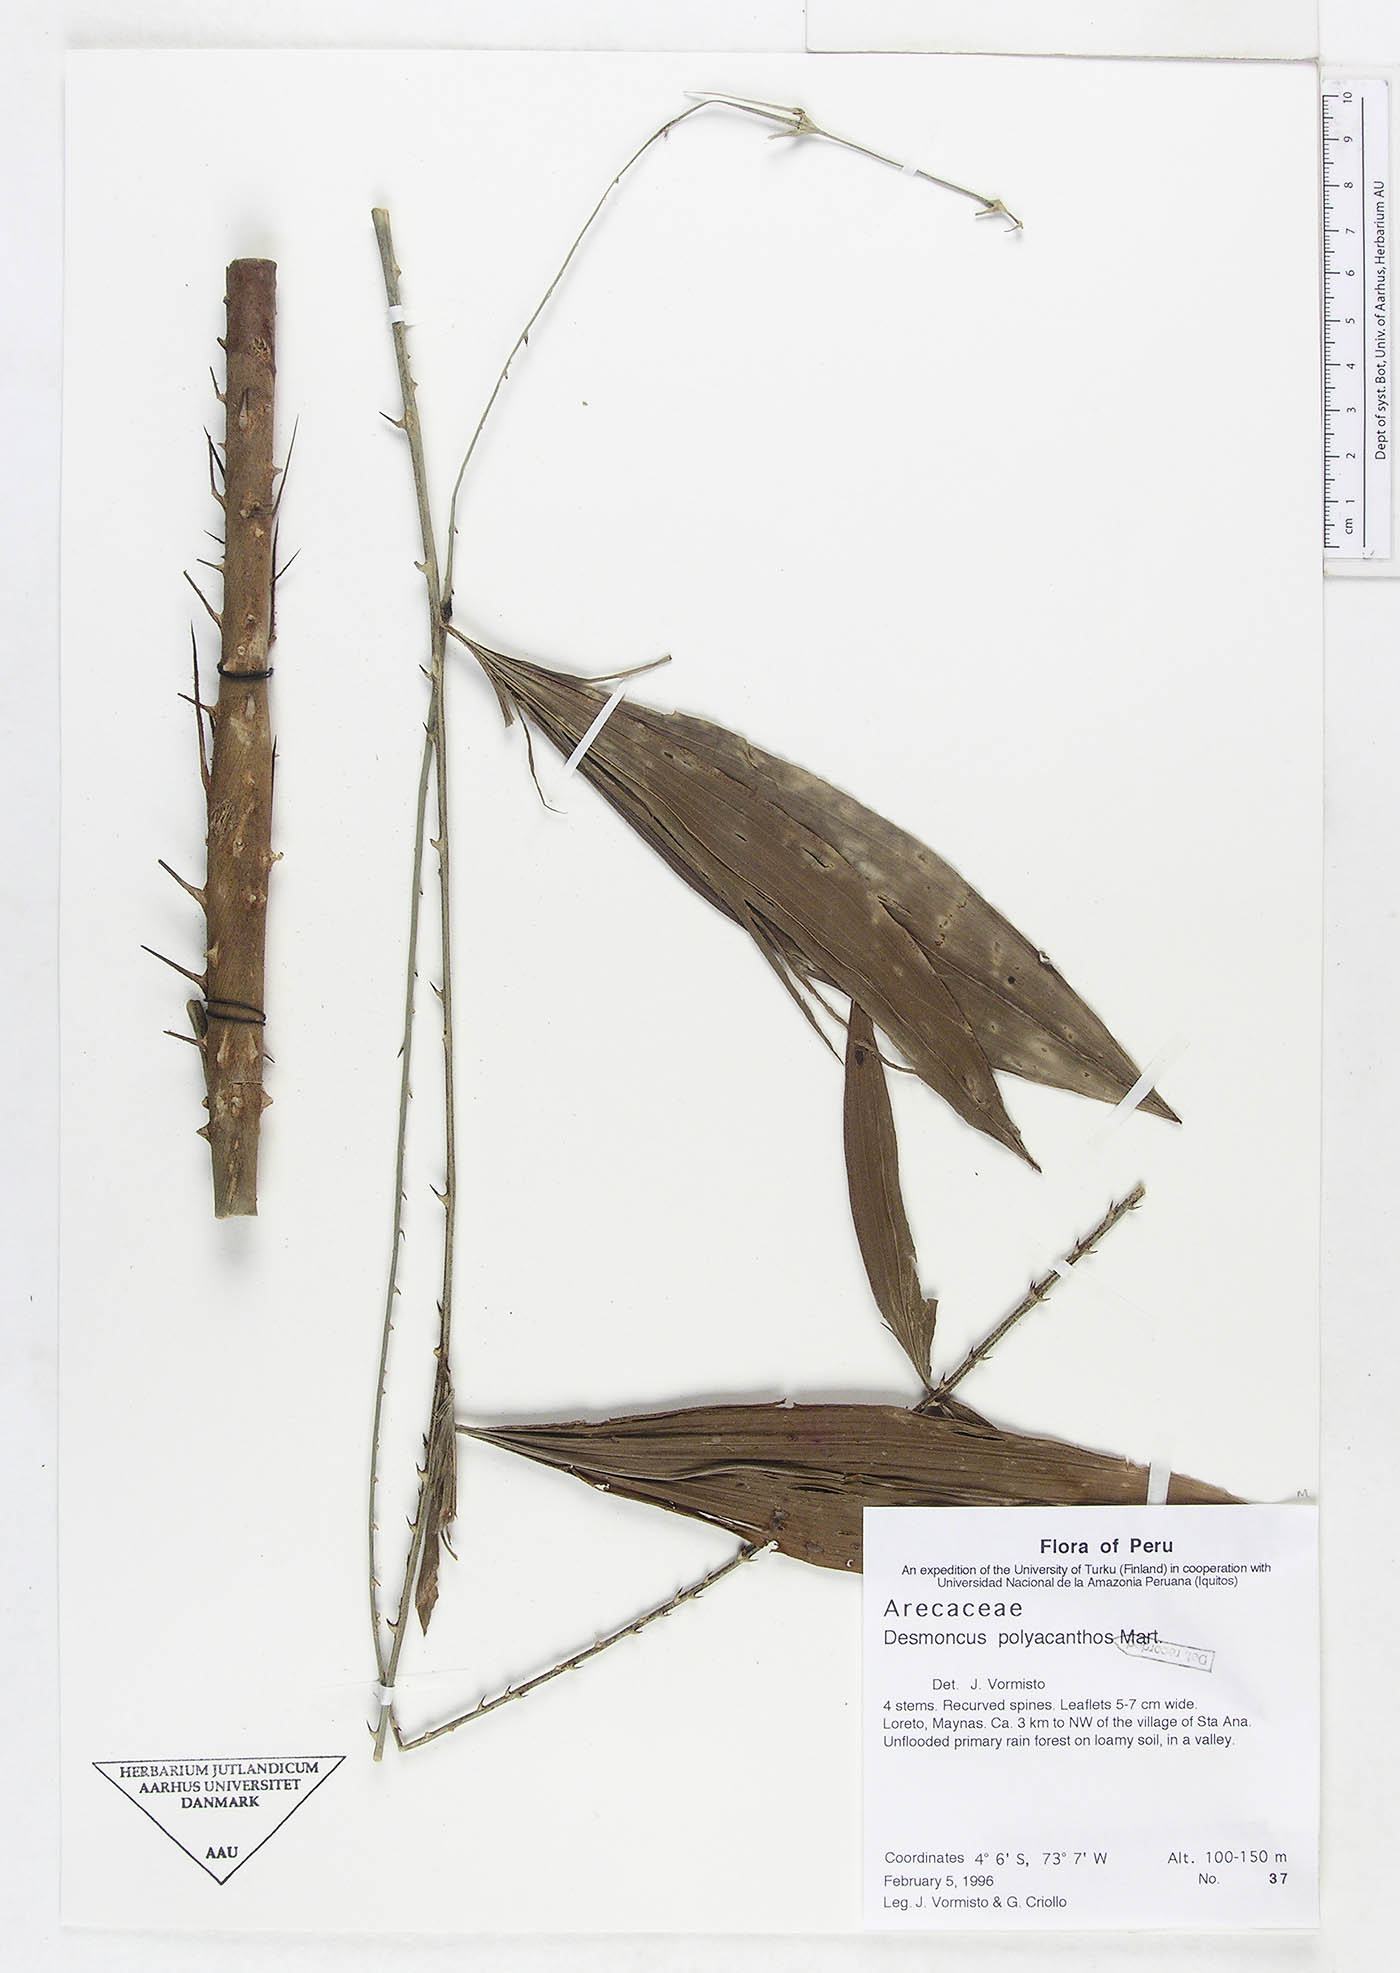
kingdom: Plantae
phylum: Tracheophyta
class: Liliopsida
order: Arecales
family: Arecaceae
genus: Desmoncus
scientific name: Desmoncus polyacanthos
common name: Suriname bramble palm
